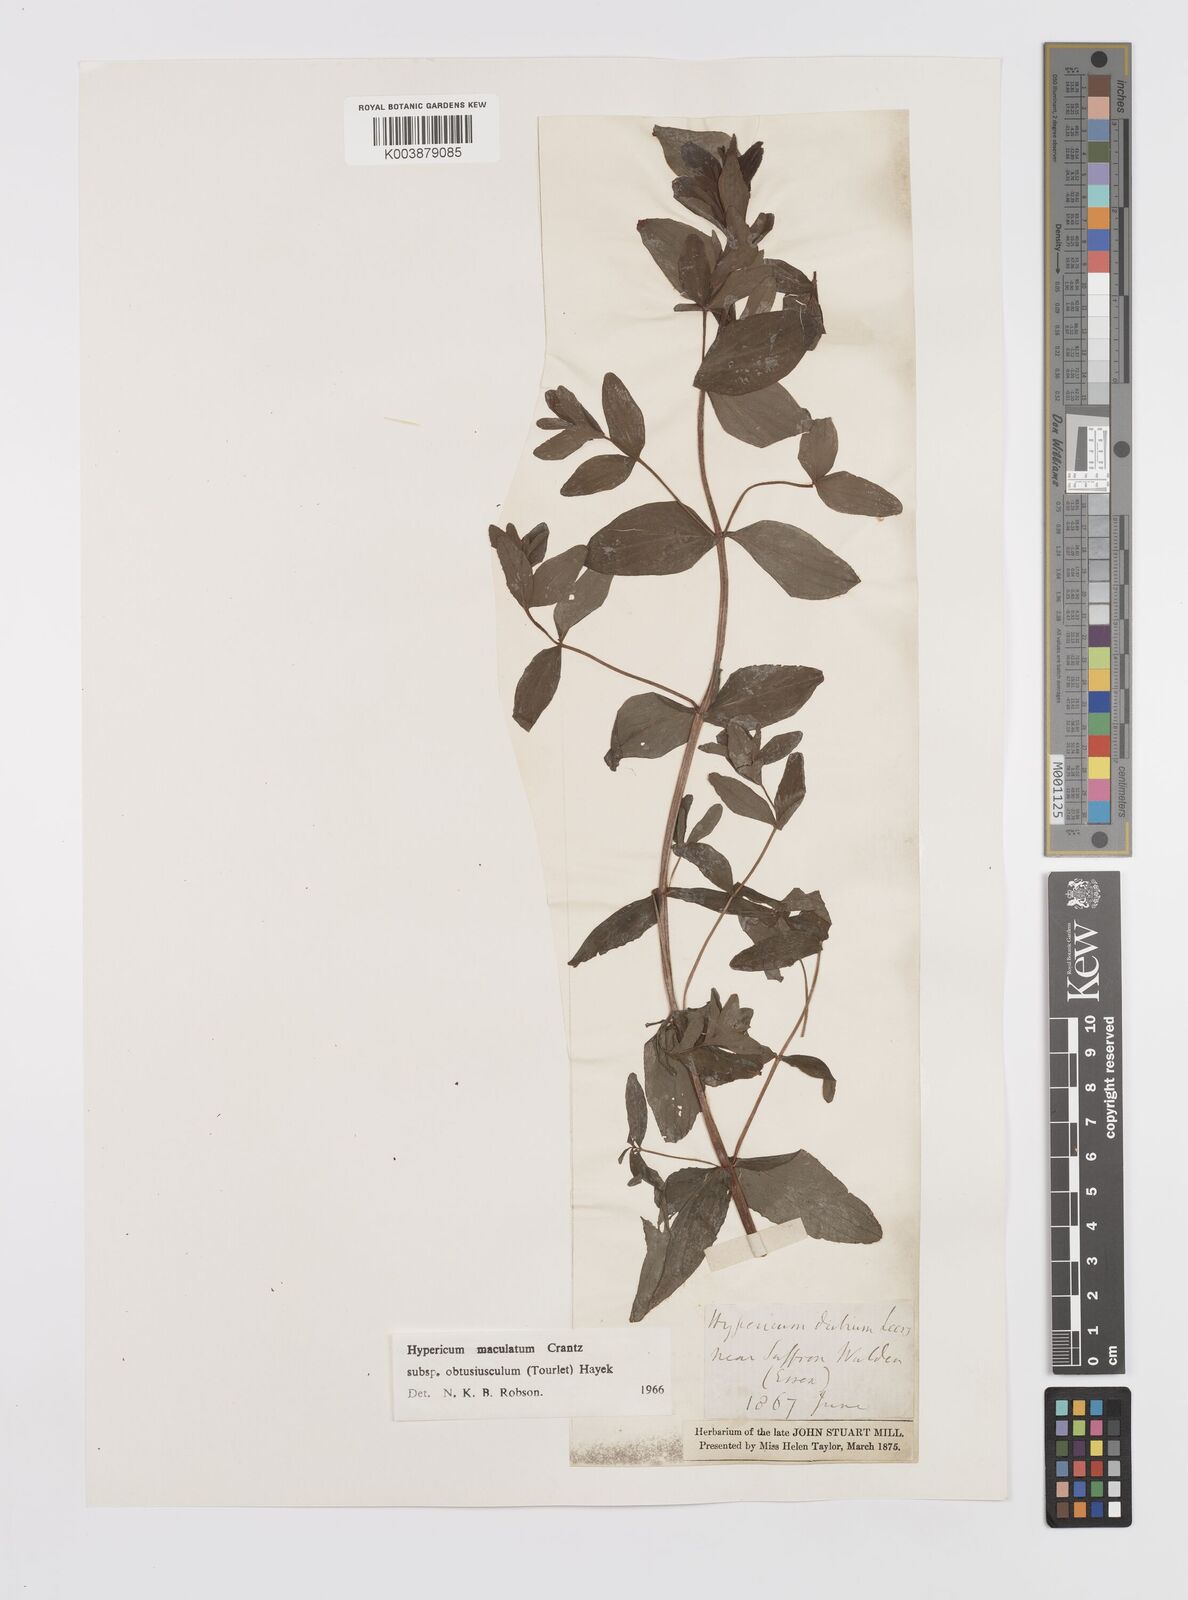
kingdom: Plantae
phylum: Tracheophyta
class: Magnoliopsida
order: Malpighiales
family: Hypericaceae
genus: Hypericum
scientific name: Hypericum dubium
